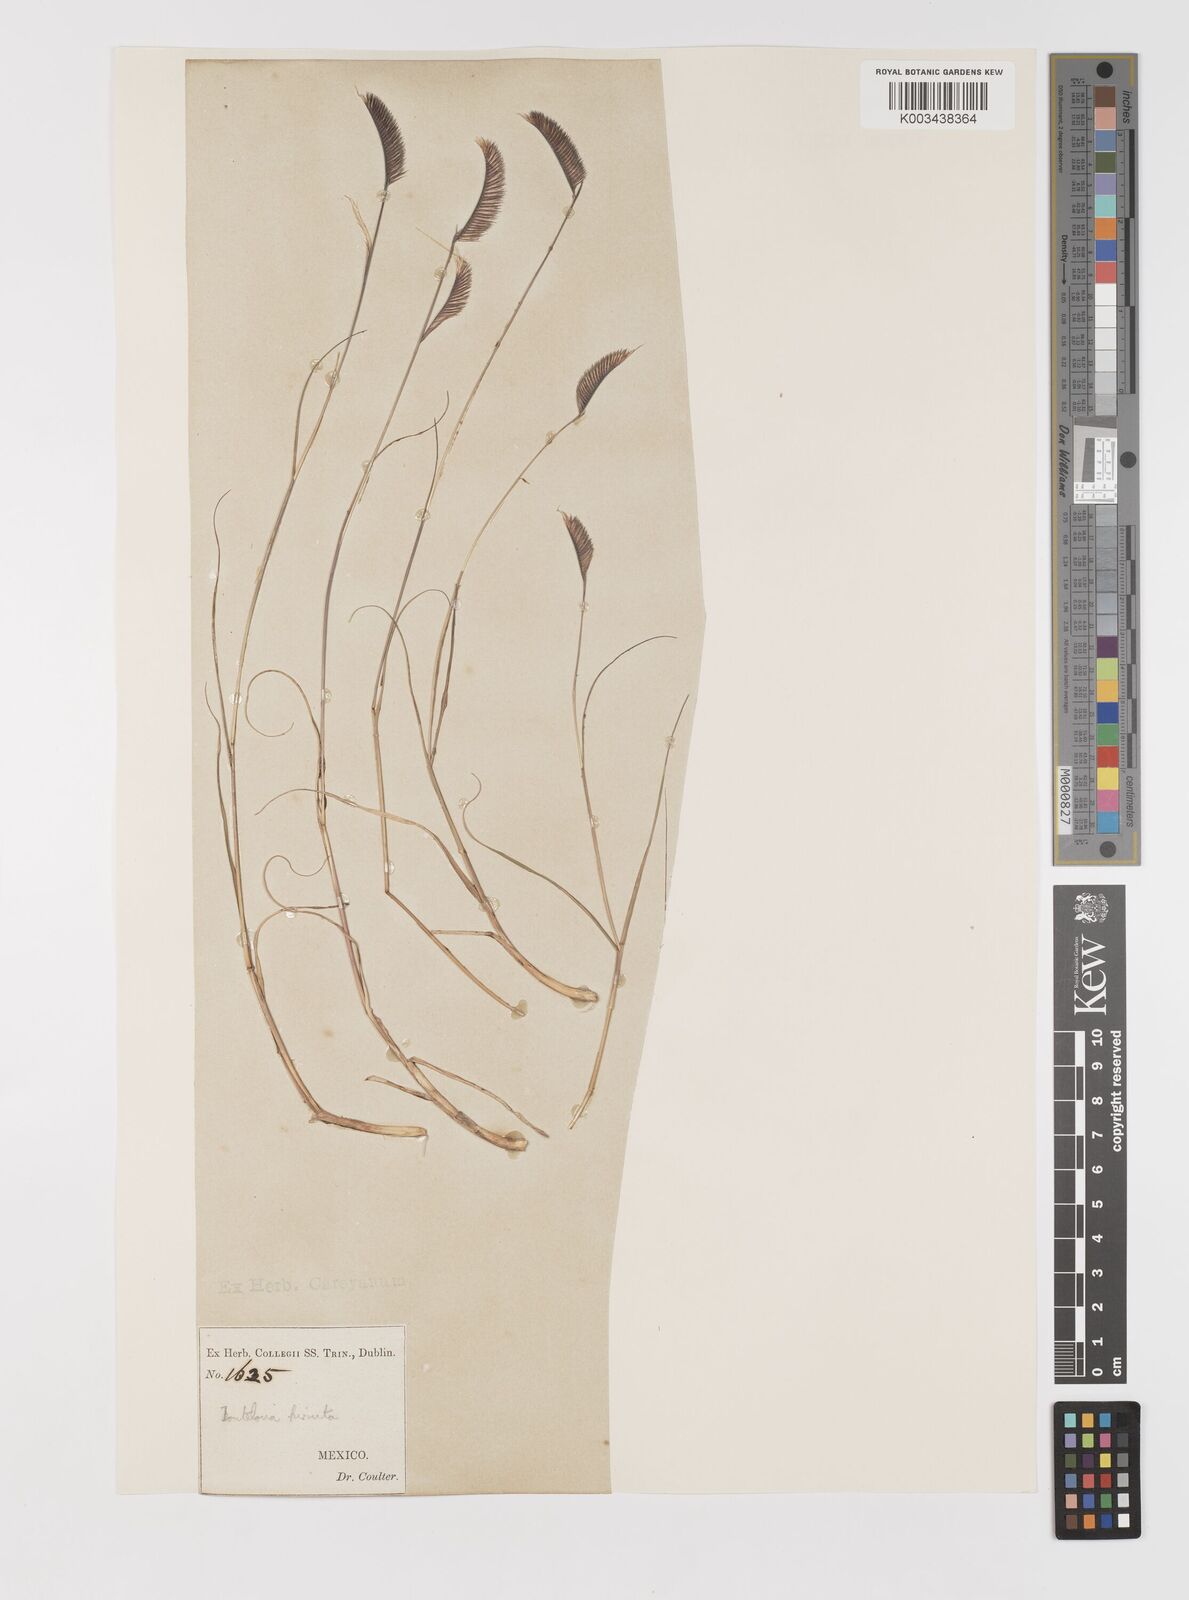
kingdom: Plantae
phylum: Tracheophyta
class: Liliopsida
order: Poales
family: Poaceae
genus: Bouteloua
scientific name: Bouteloua hirsuta
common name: Hairy grama
